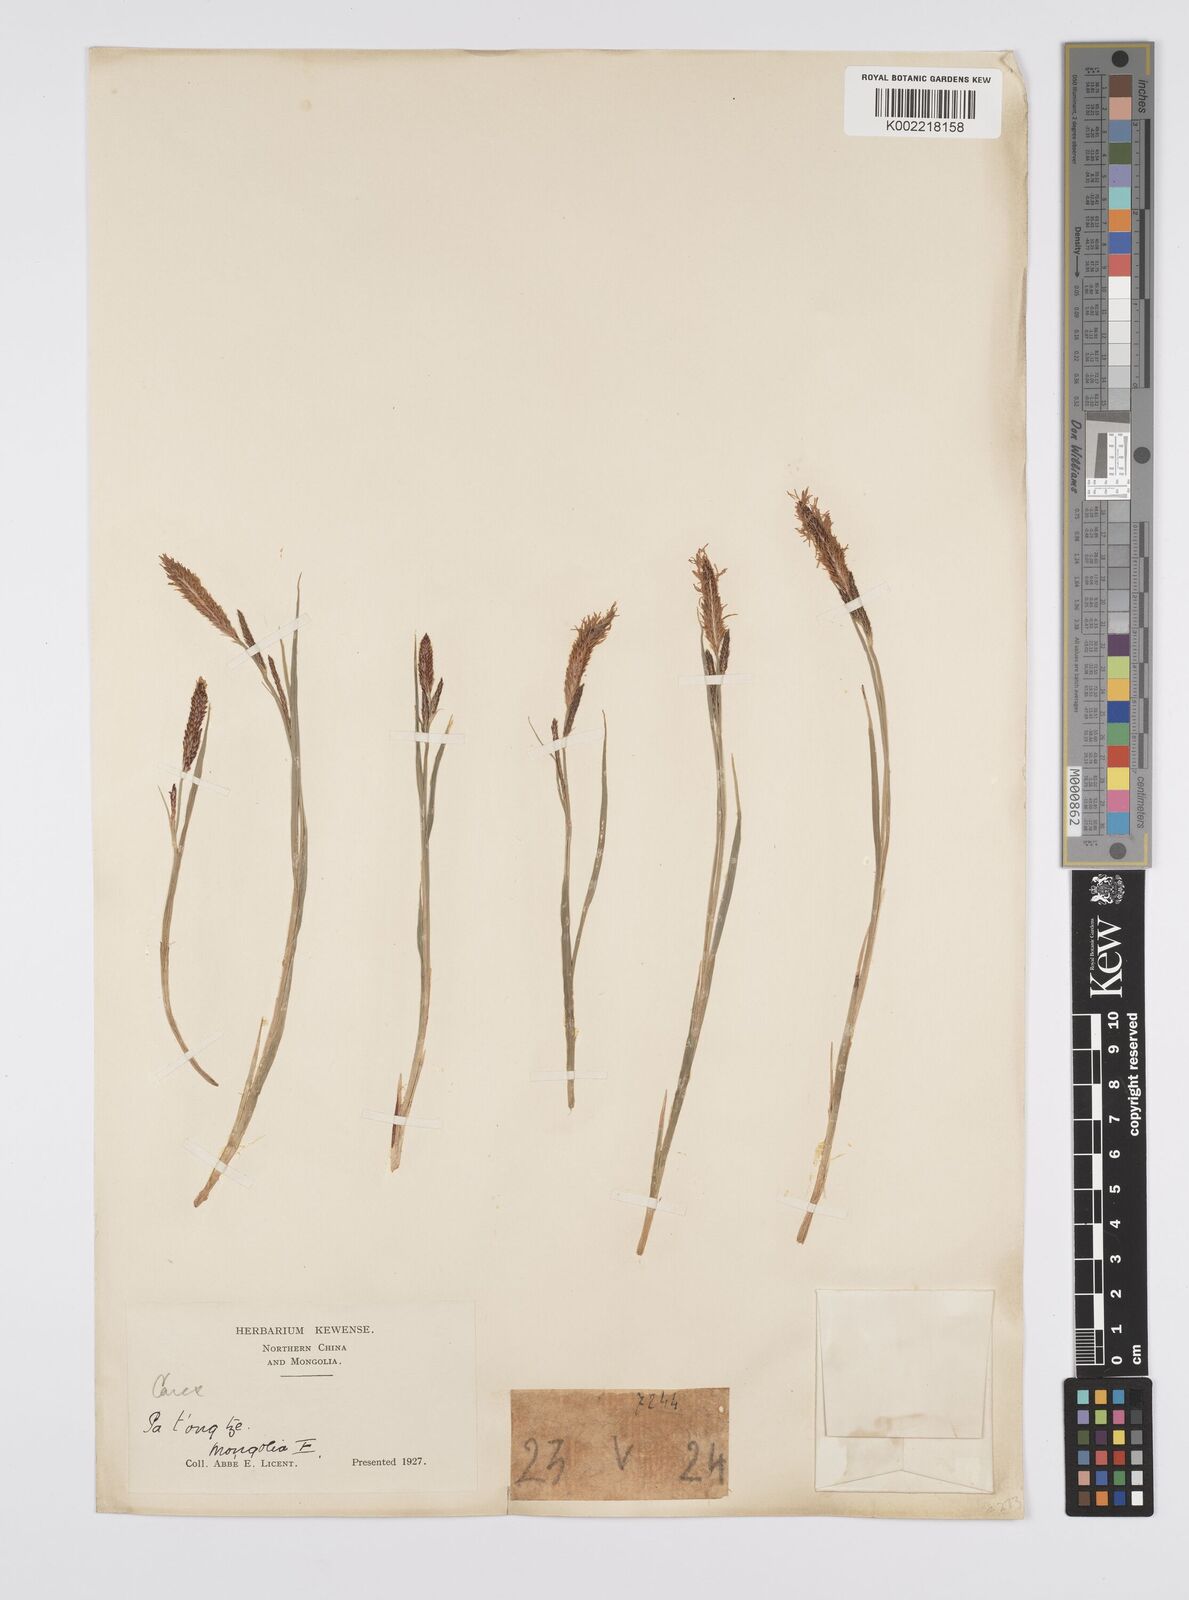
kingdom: Plantae
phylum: Tracheophyta
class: Liliopsida
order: Poales
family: Cyperaceae
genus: Carex
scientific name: Carex nigra
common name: Common sedge
